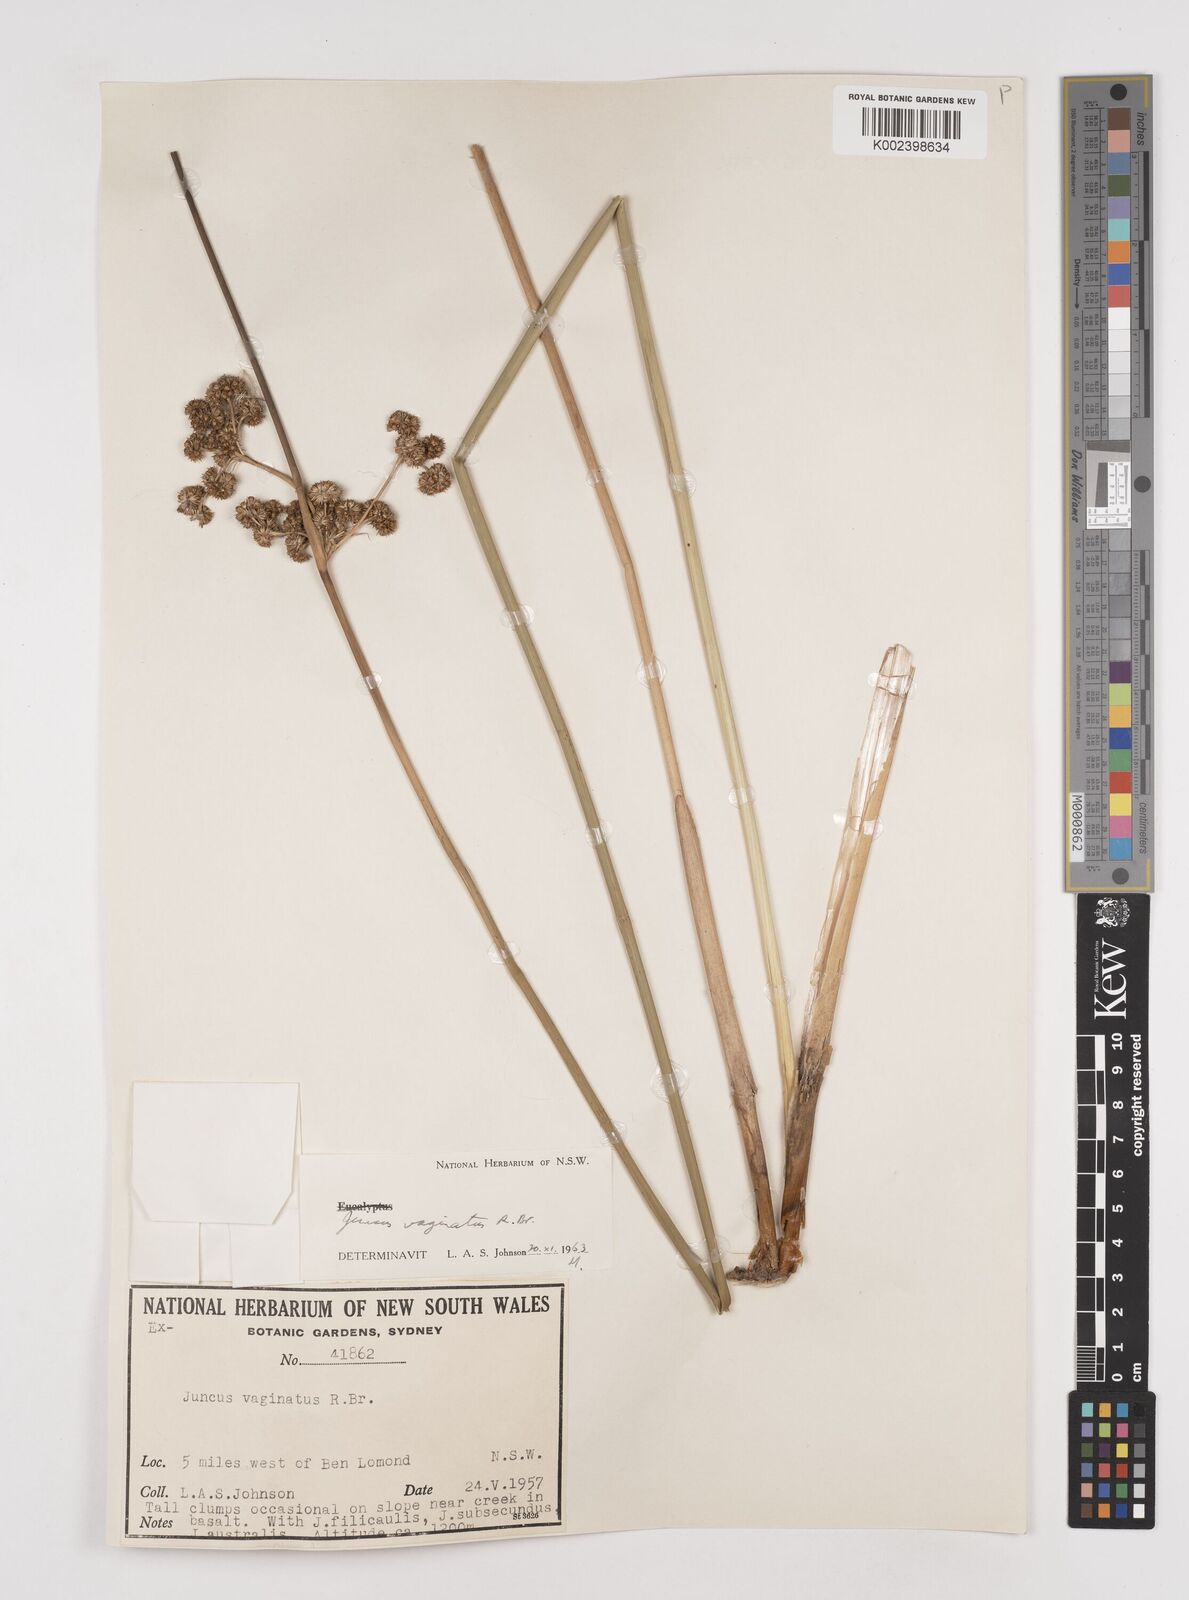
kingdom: Plantae
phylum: Tracheophyta
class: Liliopsida
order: Poales
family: Juncaceae
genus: Juncus
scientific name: Juncus vaginatus
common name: Clustered rush
